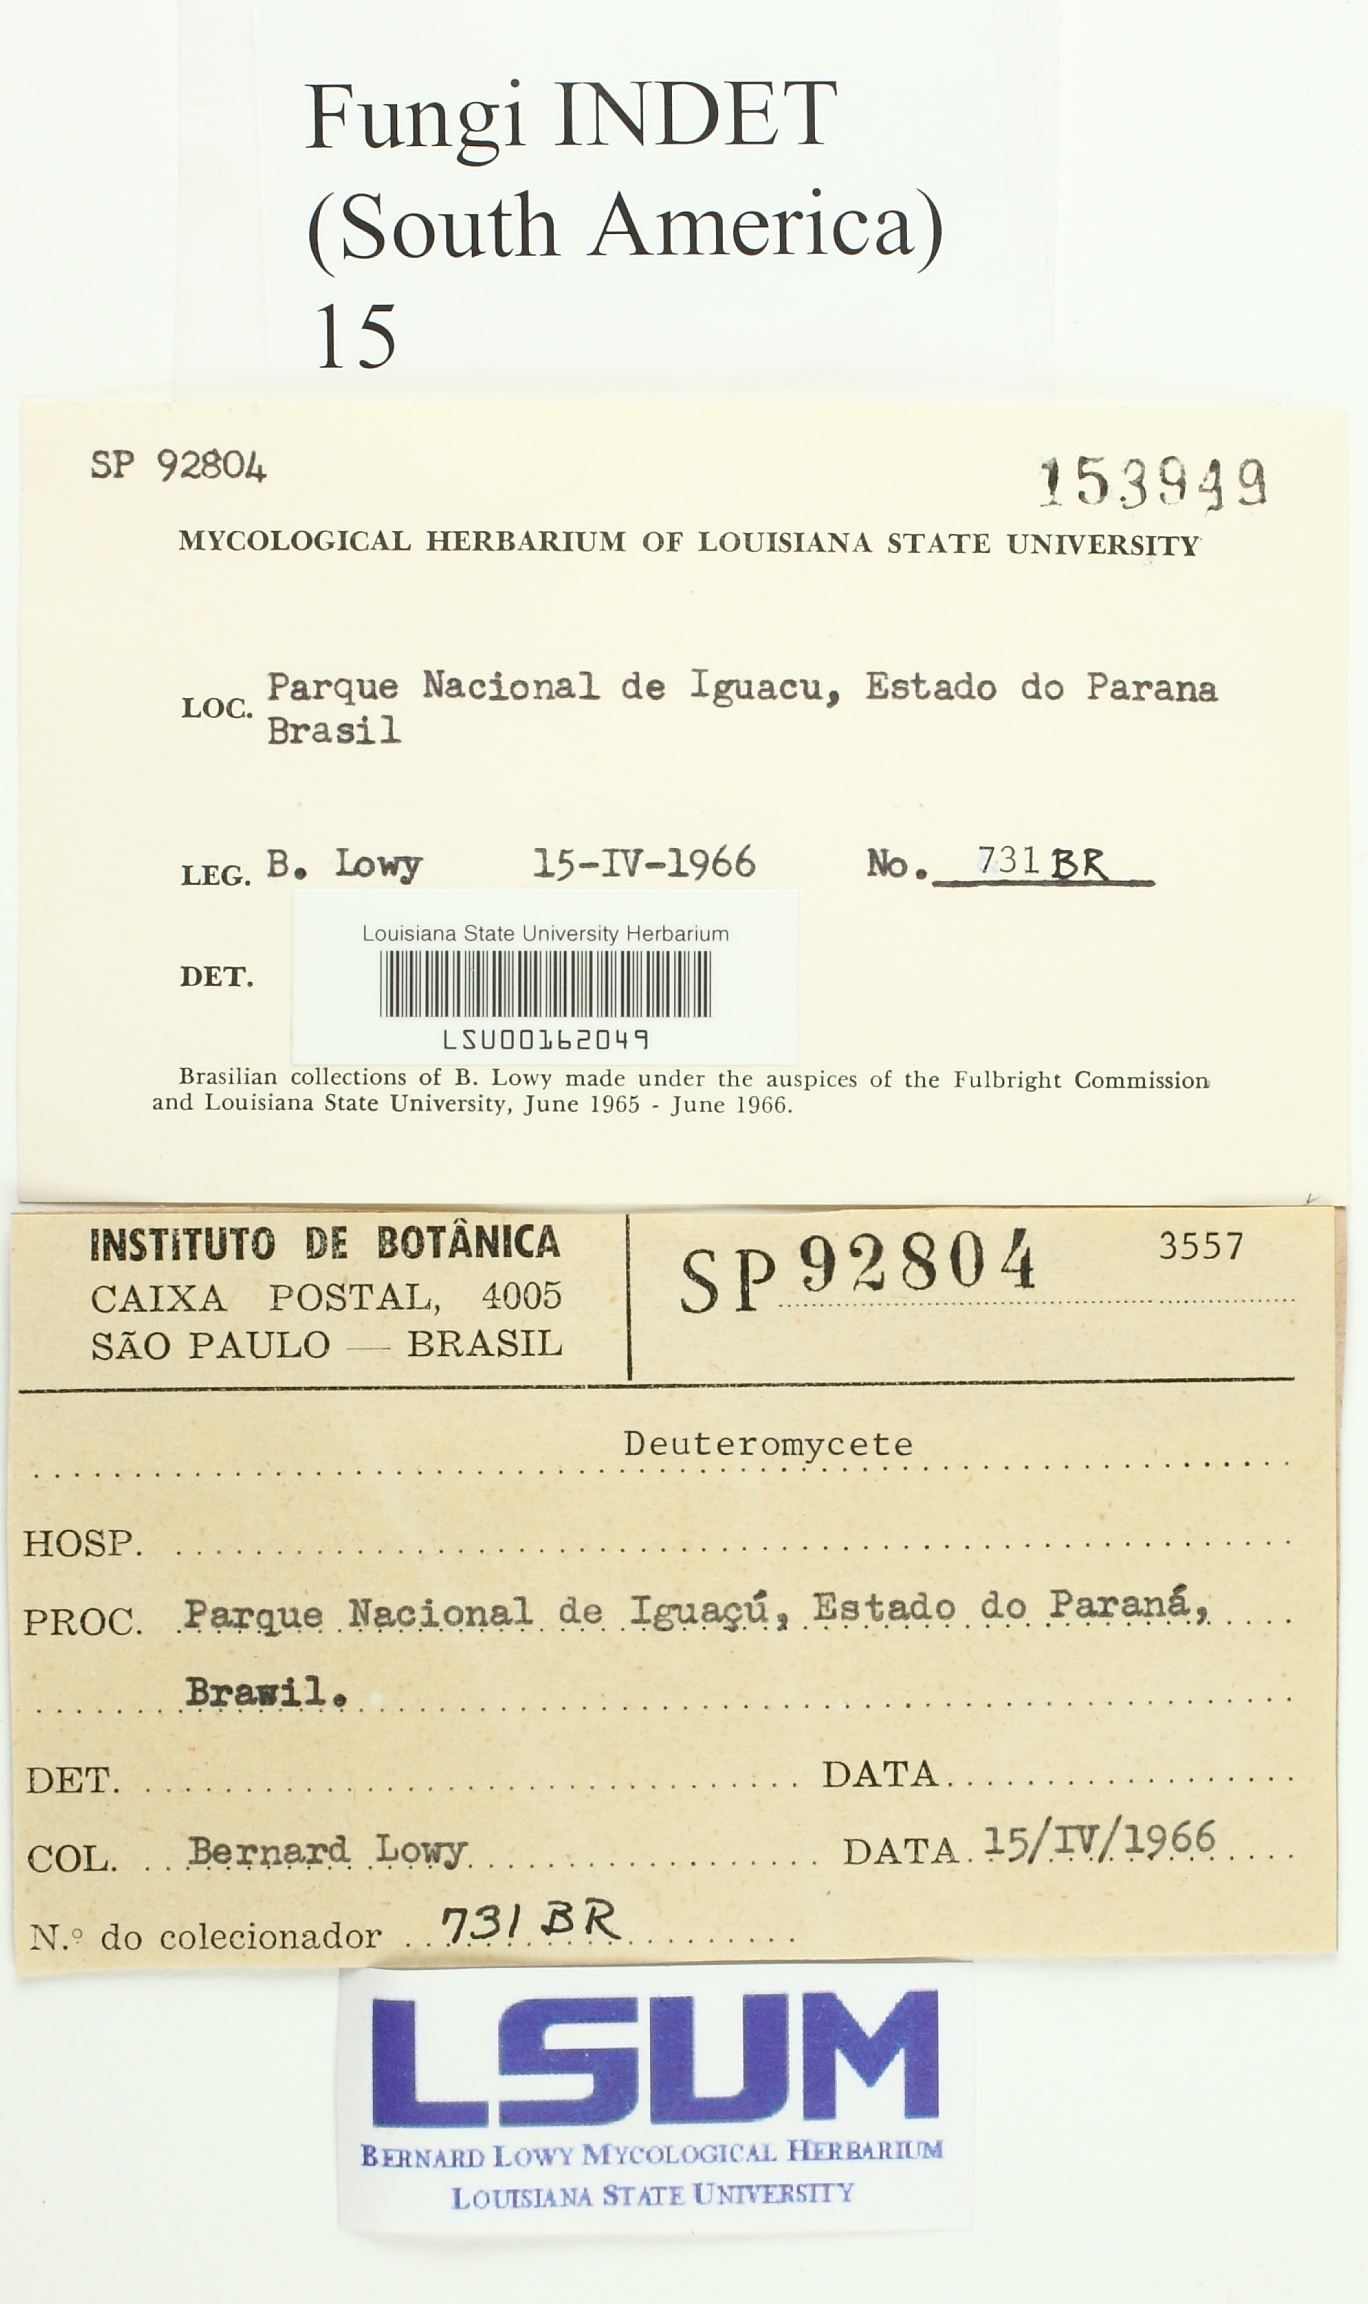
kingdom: Fungi
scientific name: Fungi
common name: Fungi
